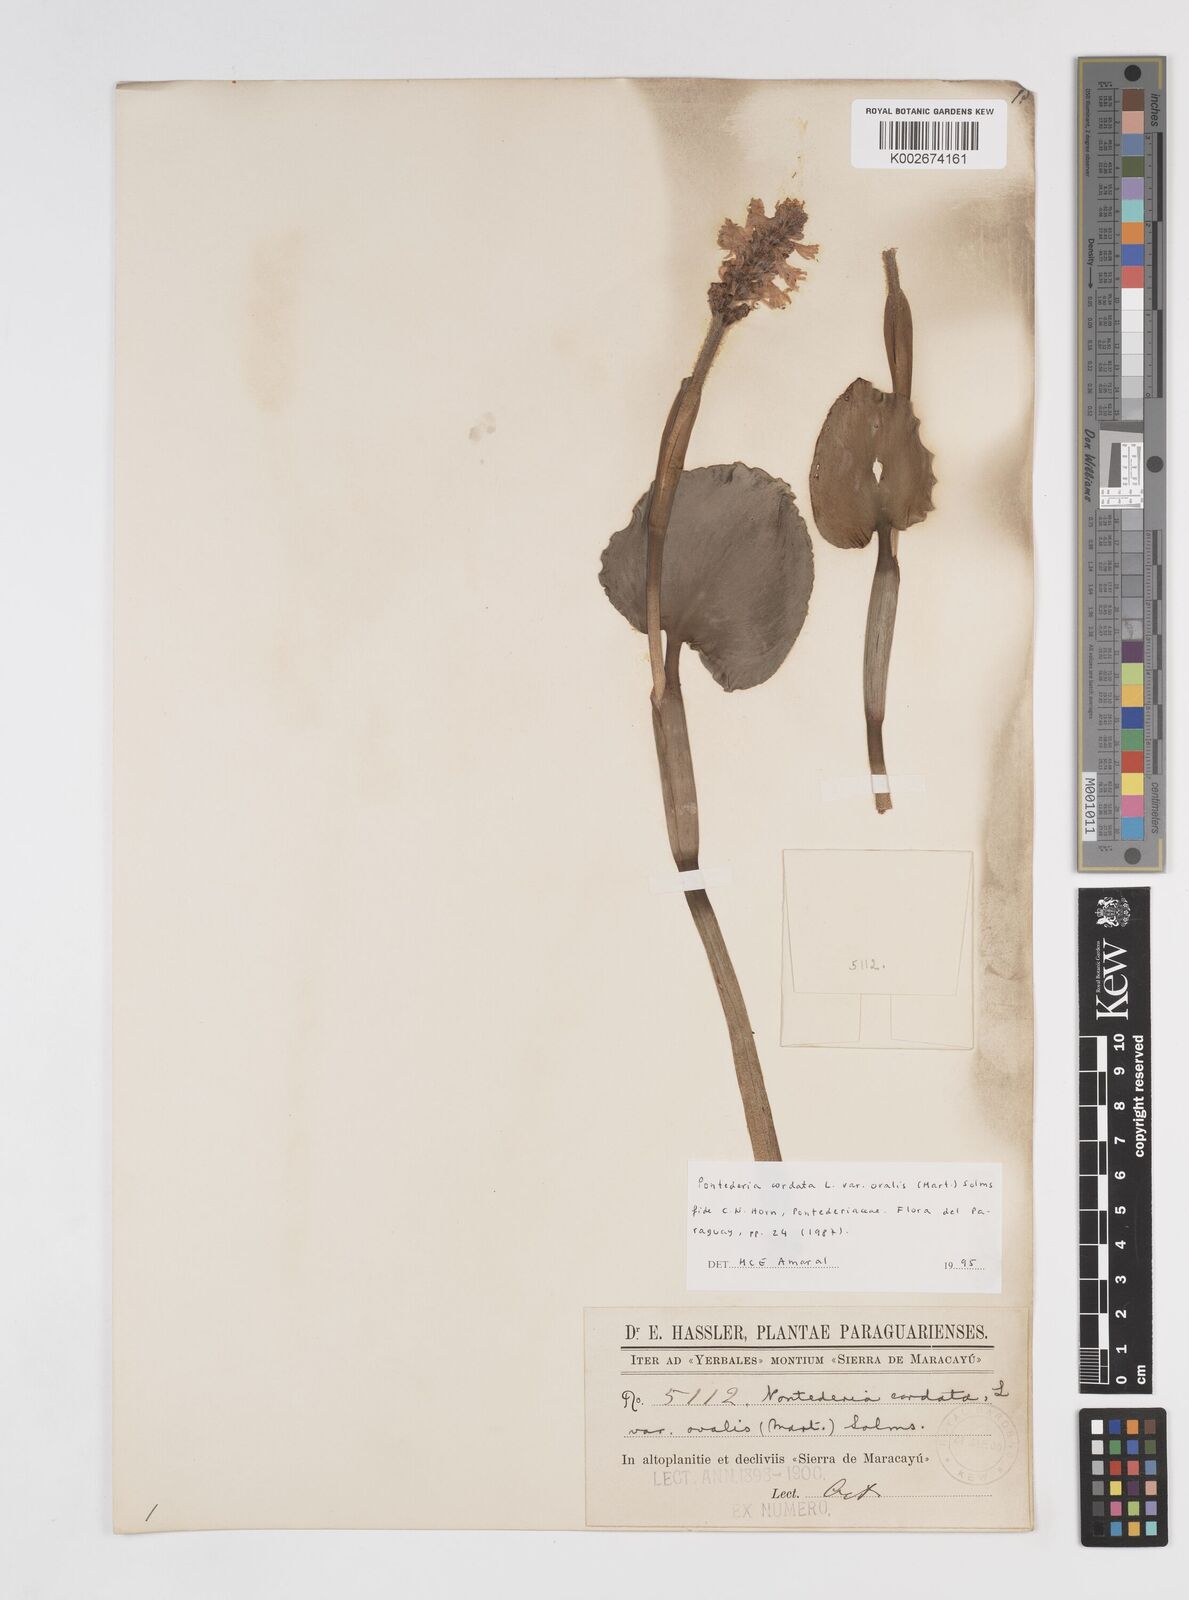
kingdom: Plantae
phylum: Tracheophyta
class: Liliopsida
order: Commelinales
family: Pontederiaceae
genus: Pontederia
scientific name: Pontederia
